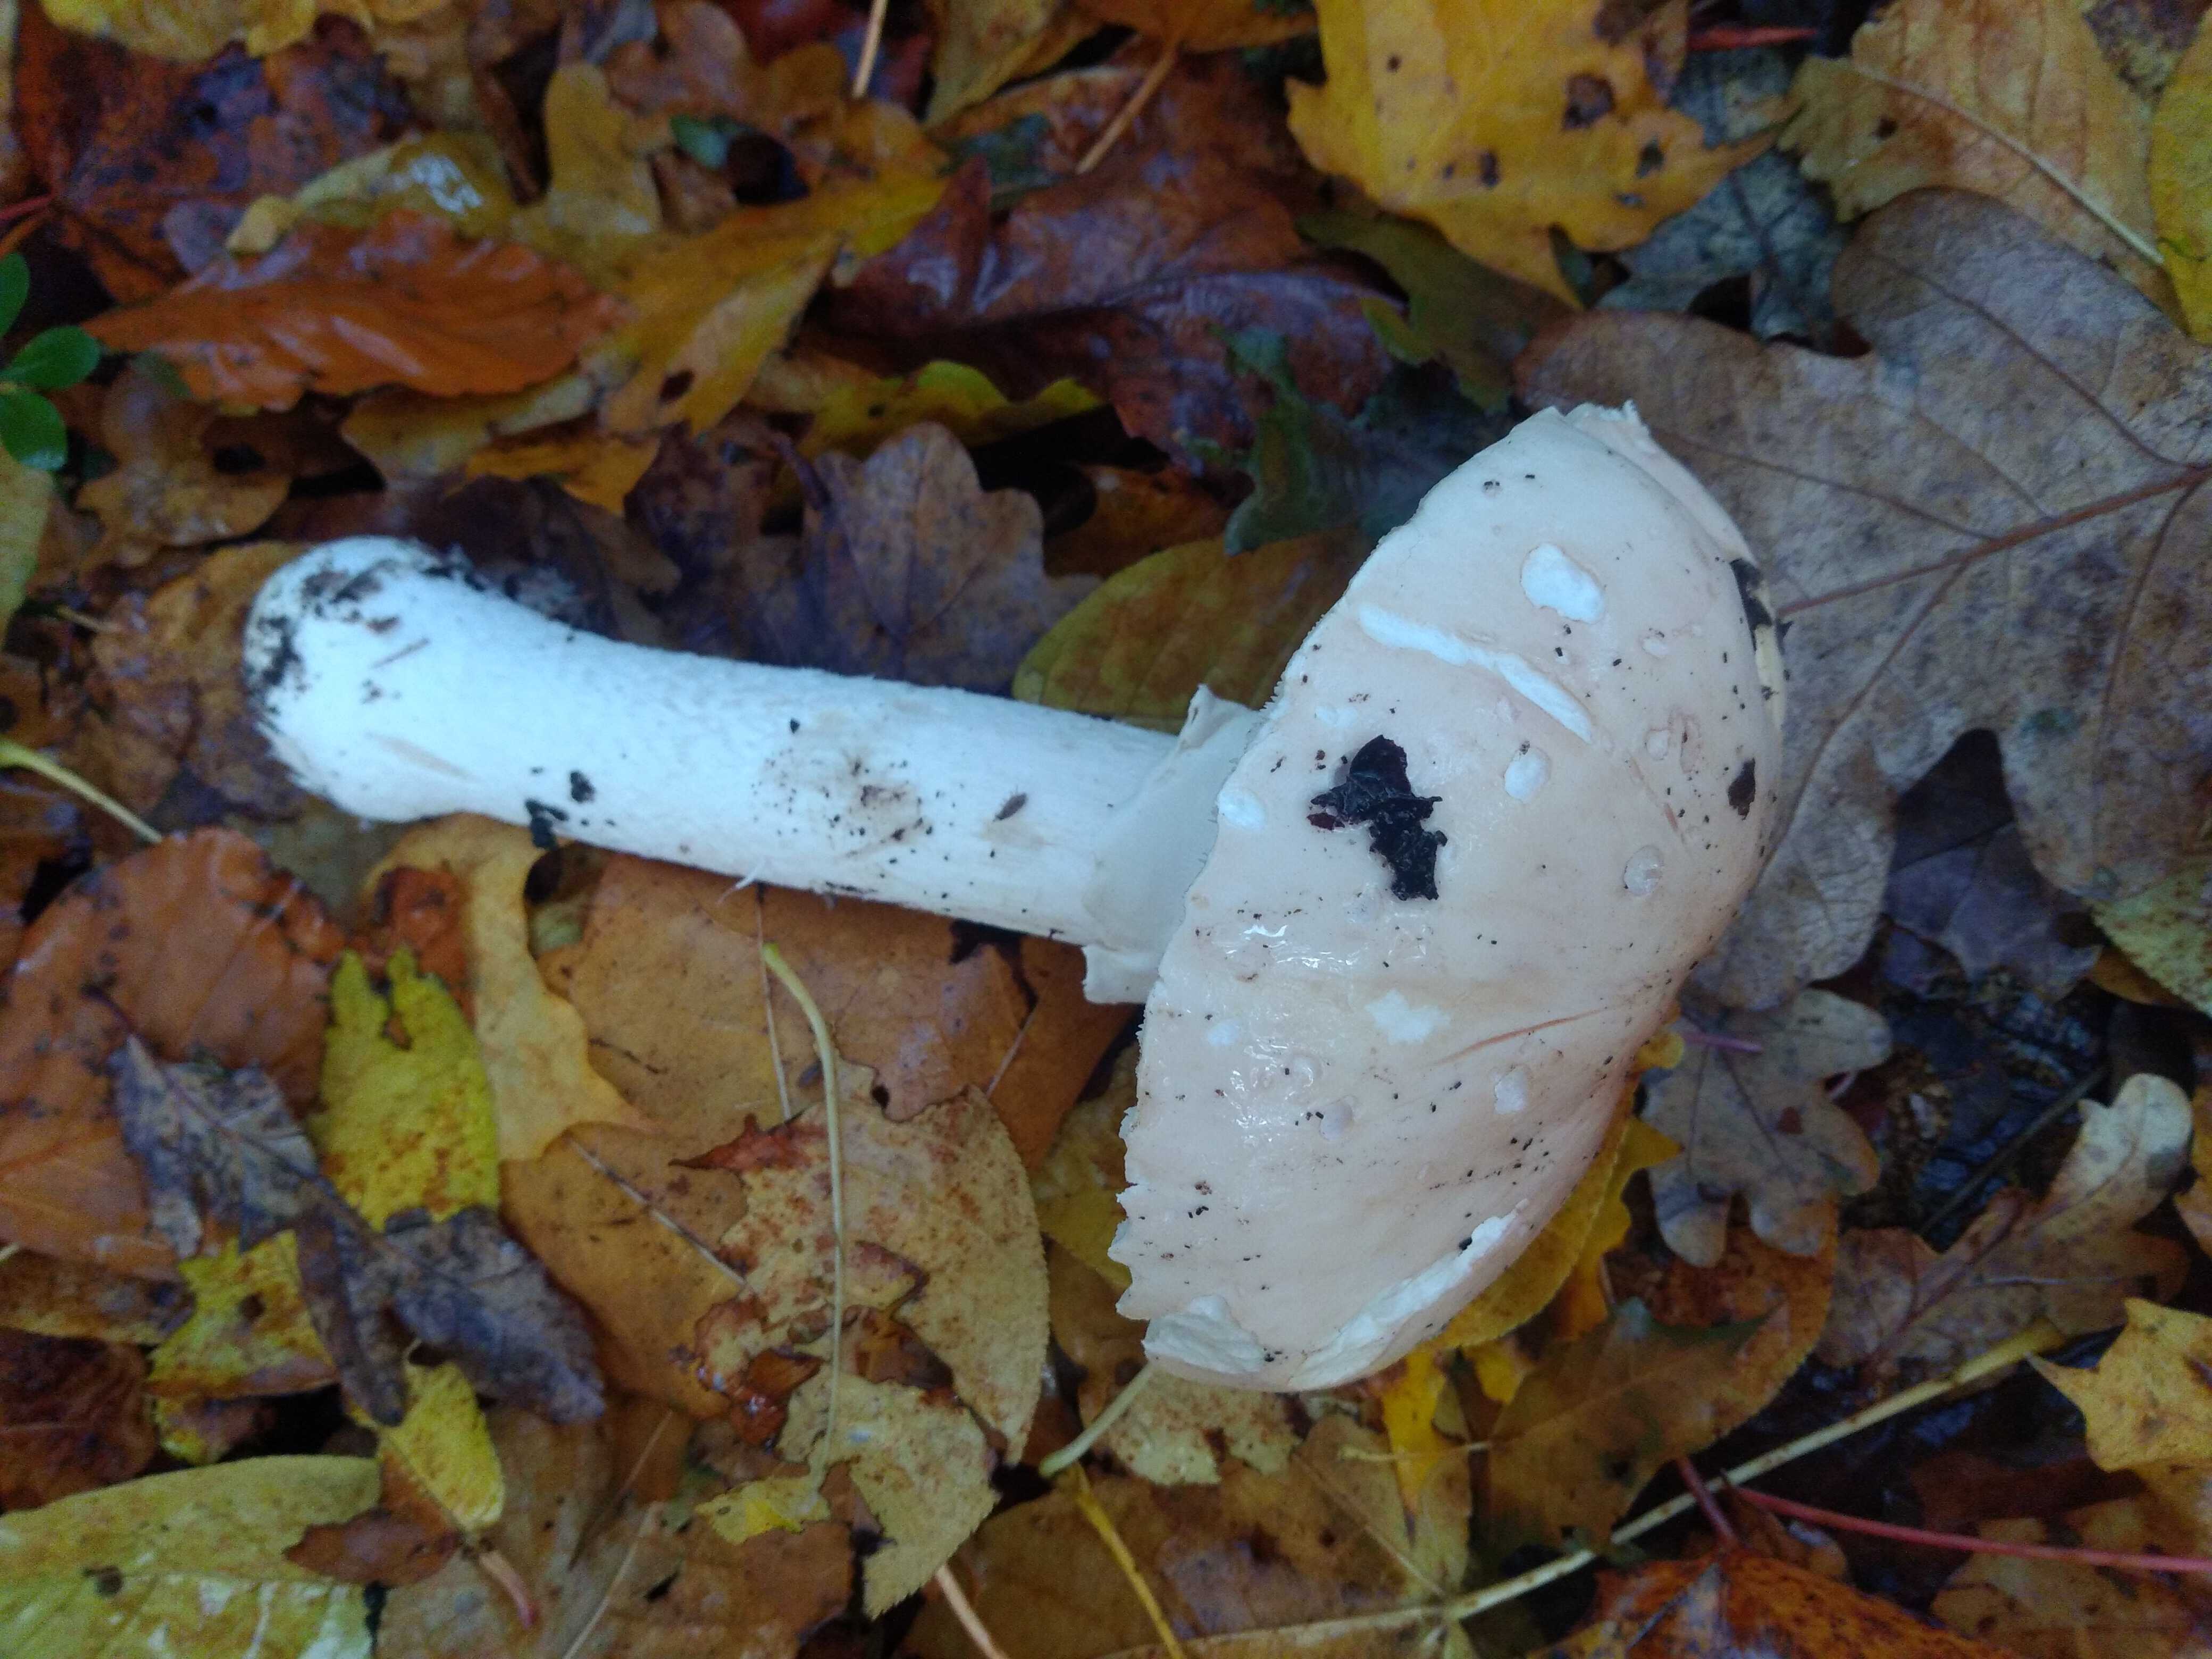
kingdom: Fungi
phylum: Basidiomycota
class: Agaricomycetes
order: Agaricales
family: Amanitaceae
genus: Limacellopsis
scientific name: Limacellopsis guttata
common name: tåre-snekkehat
